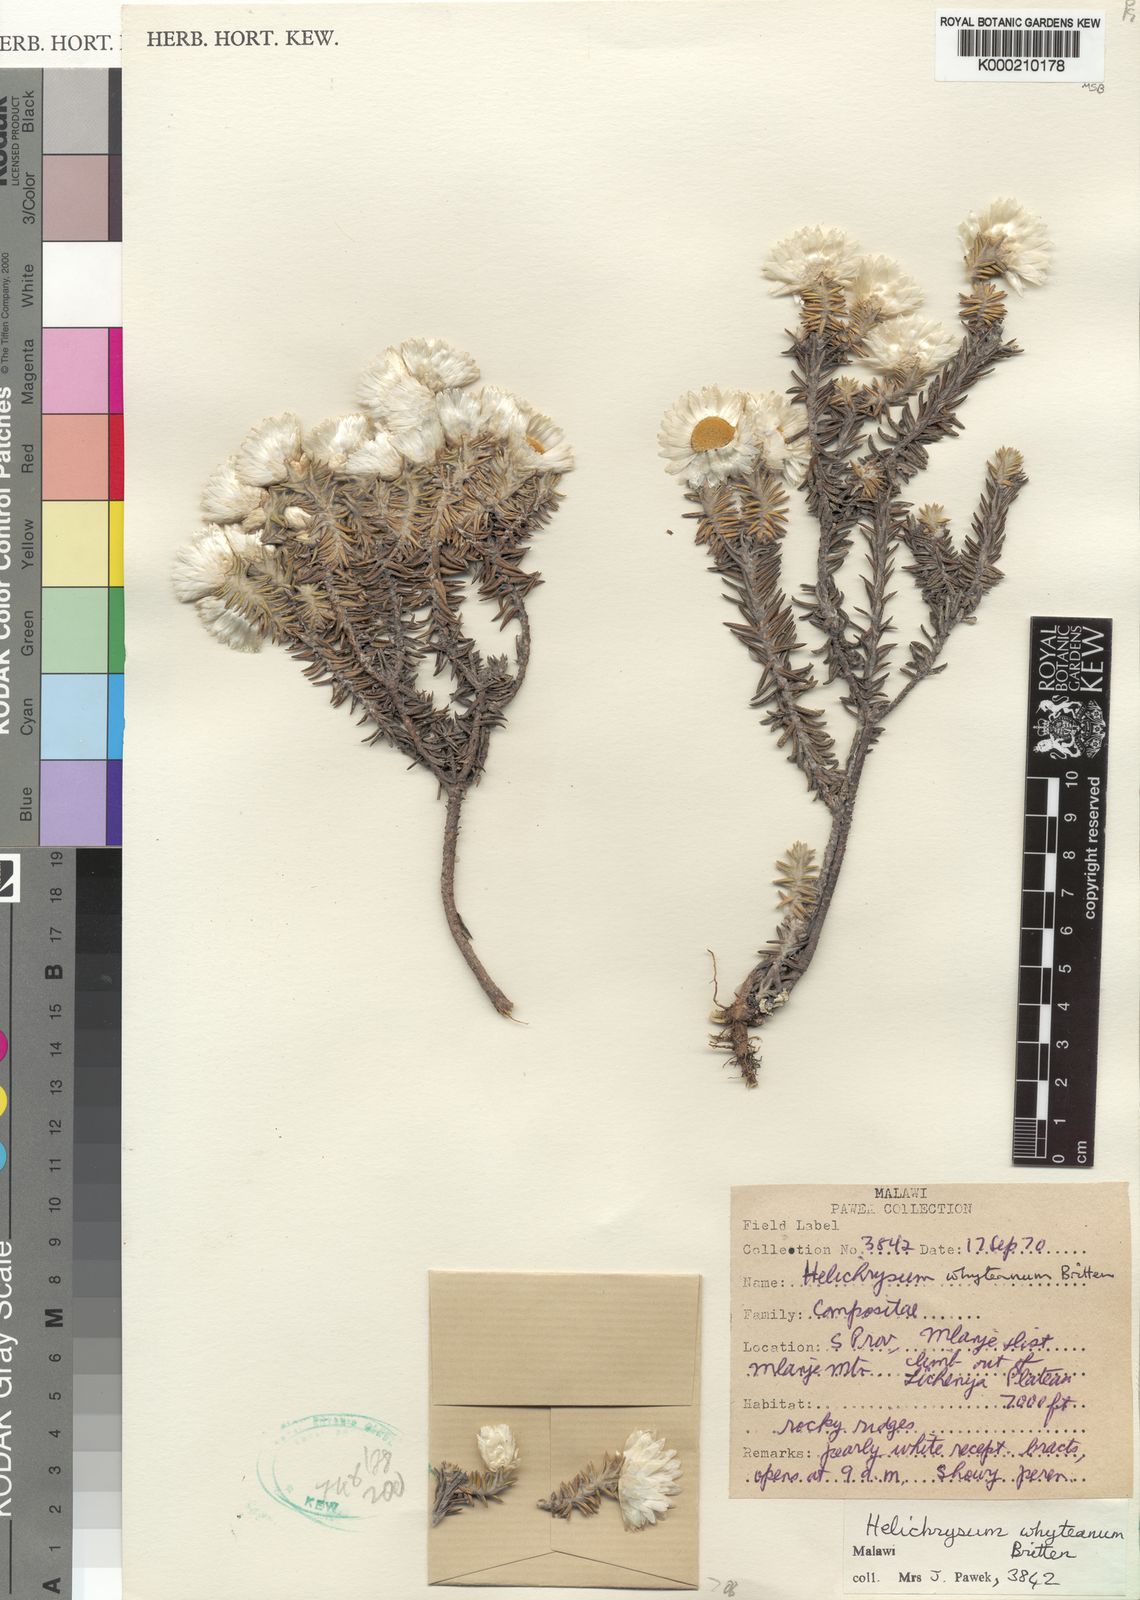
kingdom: Plantae
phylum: Tracheophyta
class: Magnoliopsida
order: Asterales
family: Asteraceae
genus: Helichrysum
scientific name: Helichrysum whyteanum
